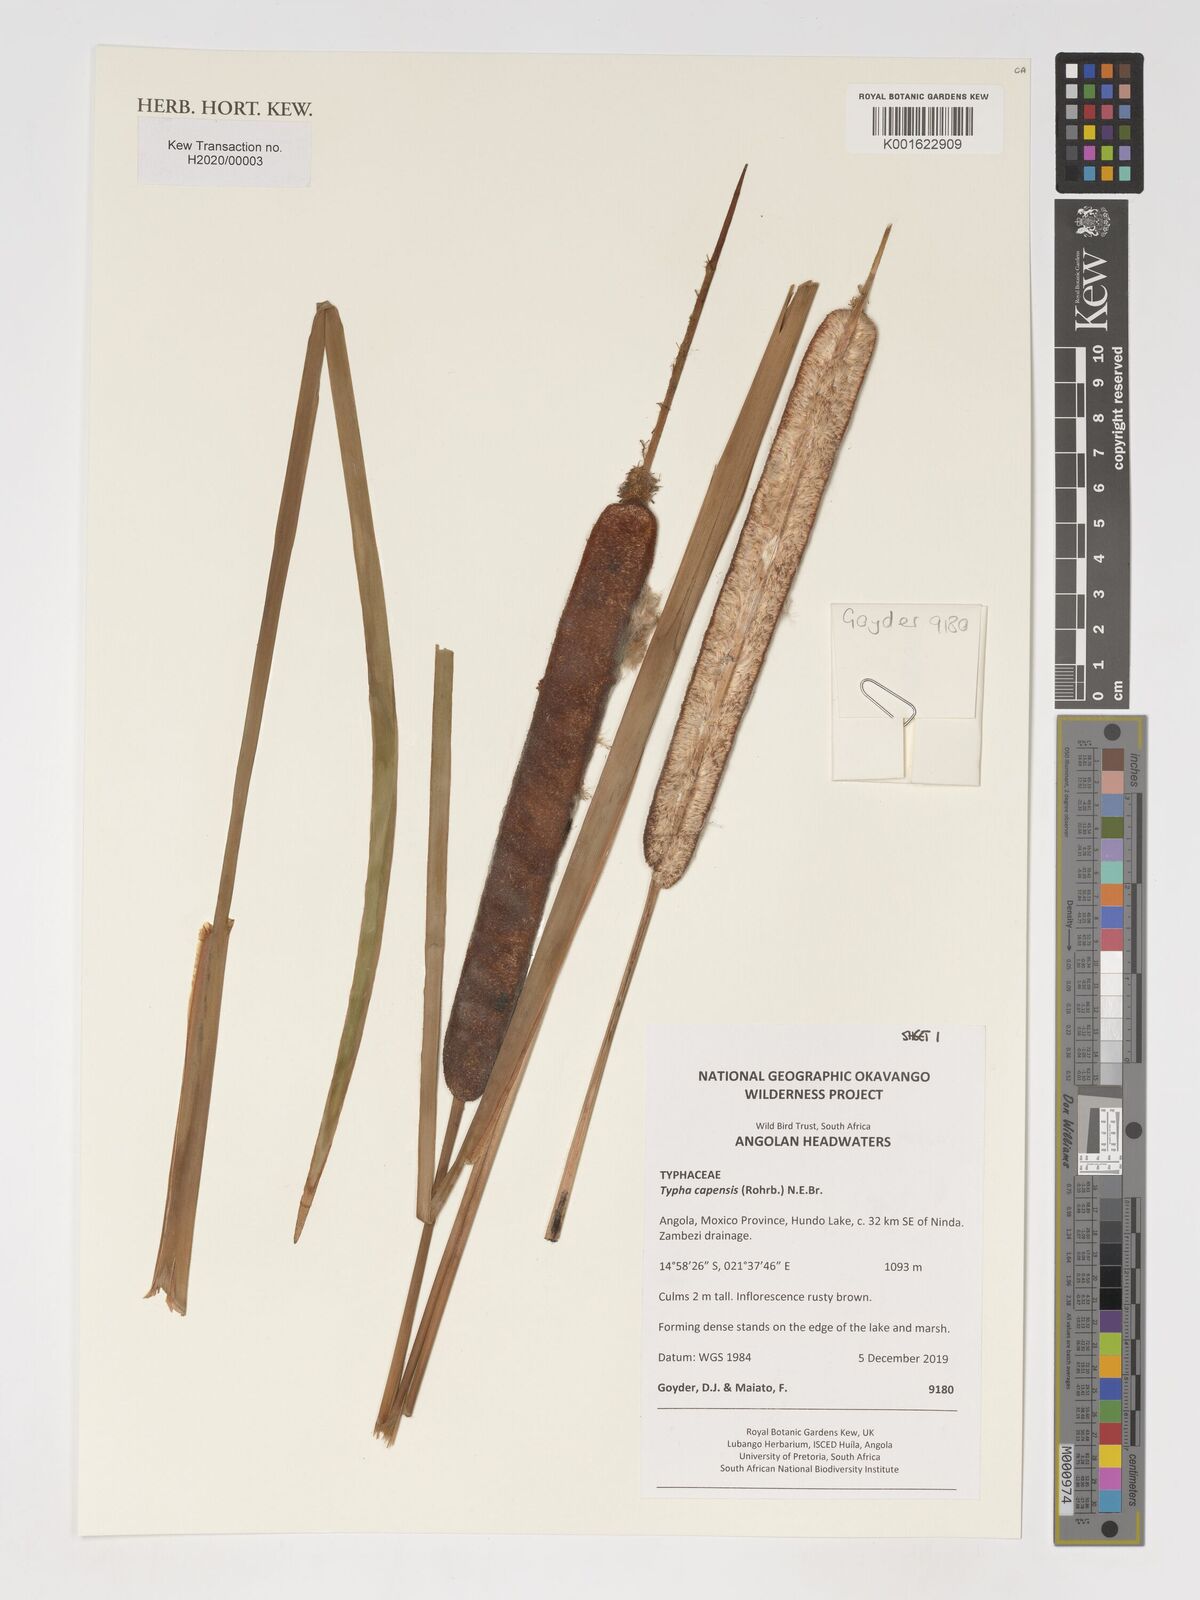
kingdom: Plantae
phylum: Tracheophyta
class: Liliopsida
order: Poales
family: Typhaceae
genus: Typha
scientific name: Typha capensis
